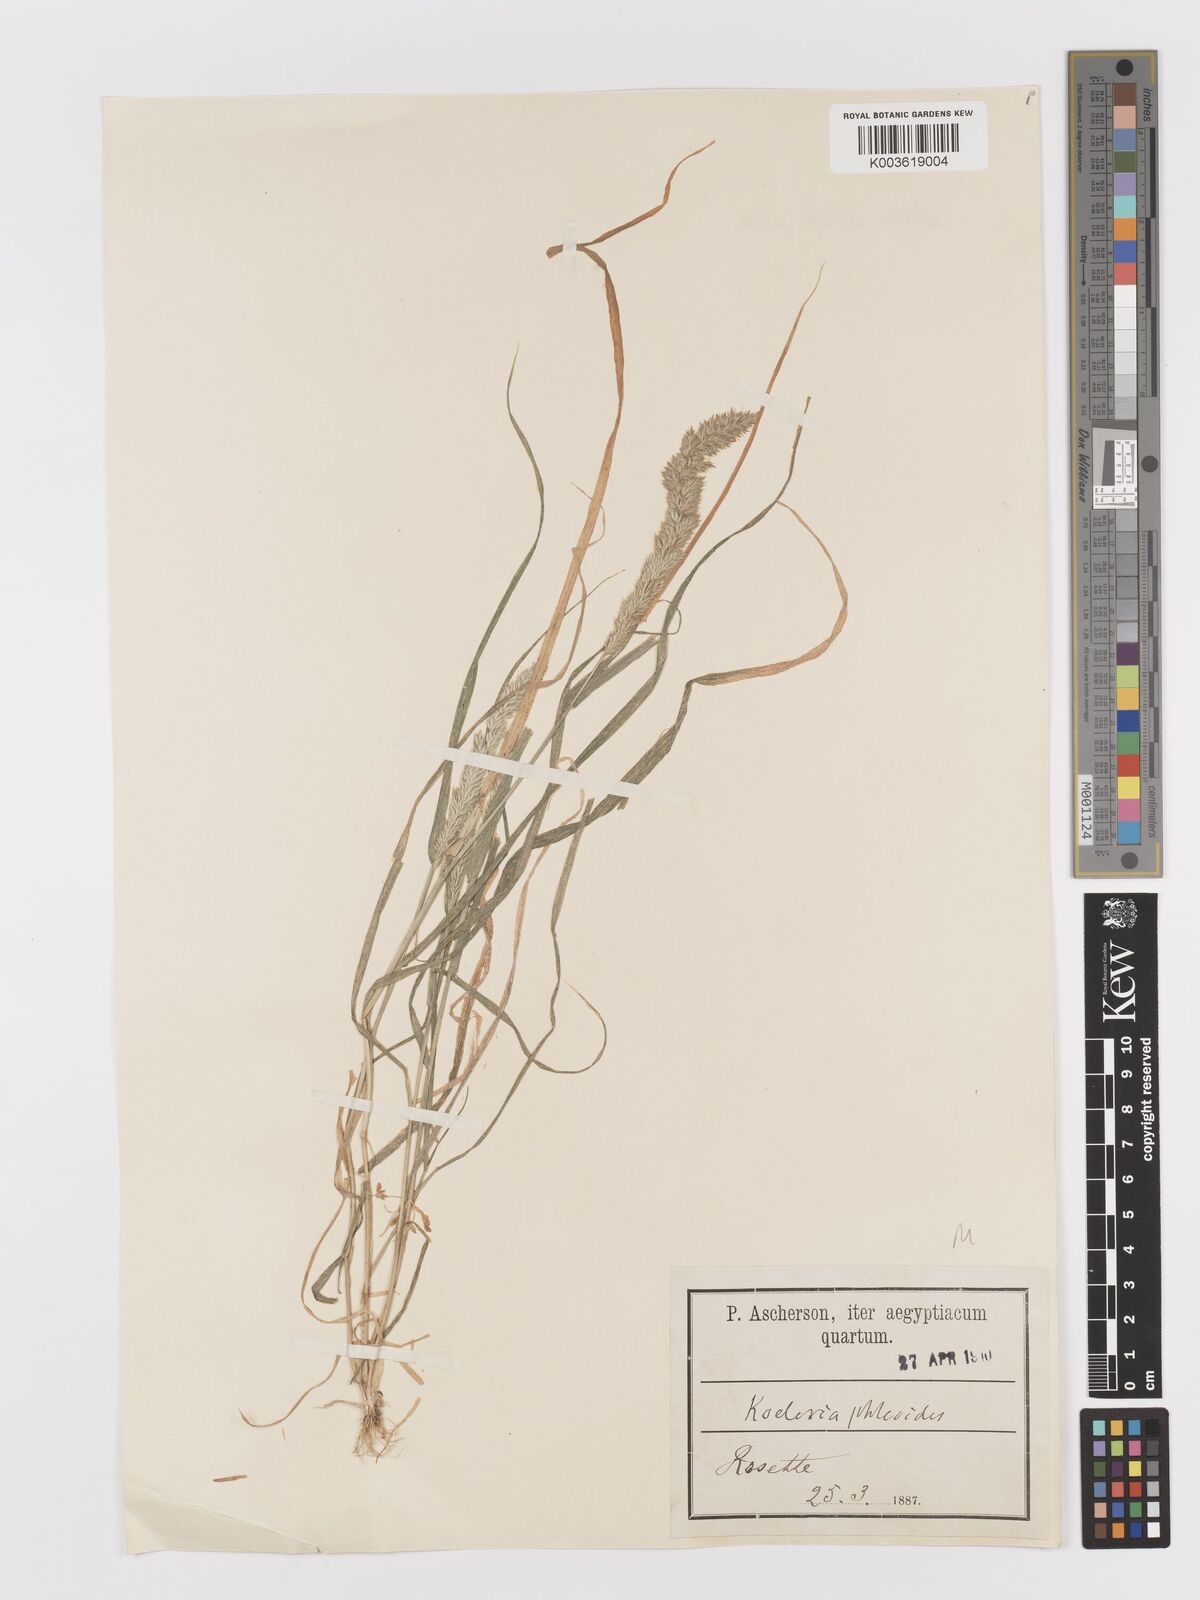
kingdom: Plantae
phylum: Tracheophyta
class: Liliopsida
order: Poales
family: Poaceae
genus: Rostraria
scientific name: Rostraria cristata
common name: Mediterranean hair-grass
